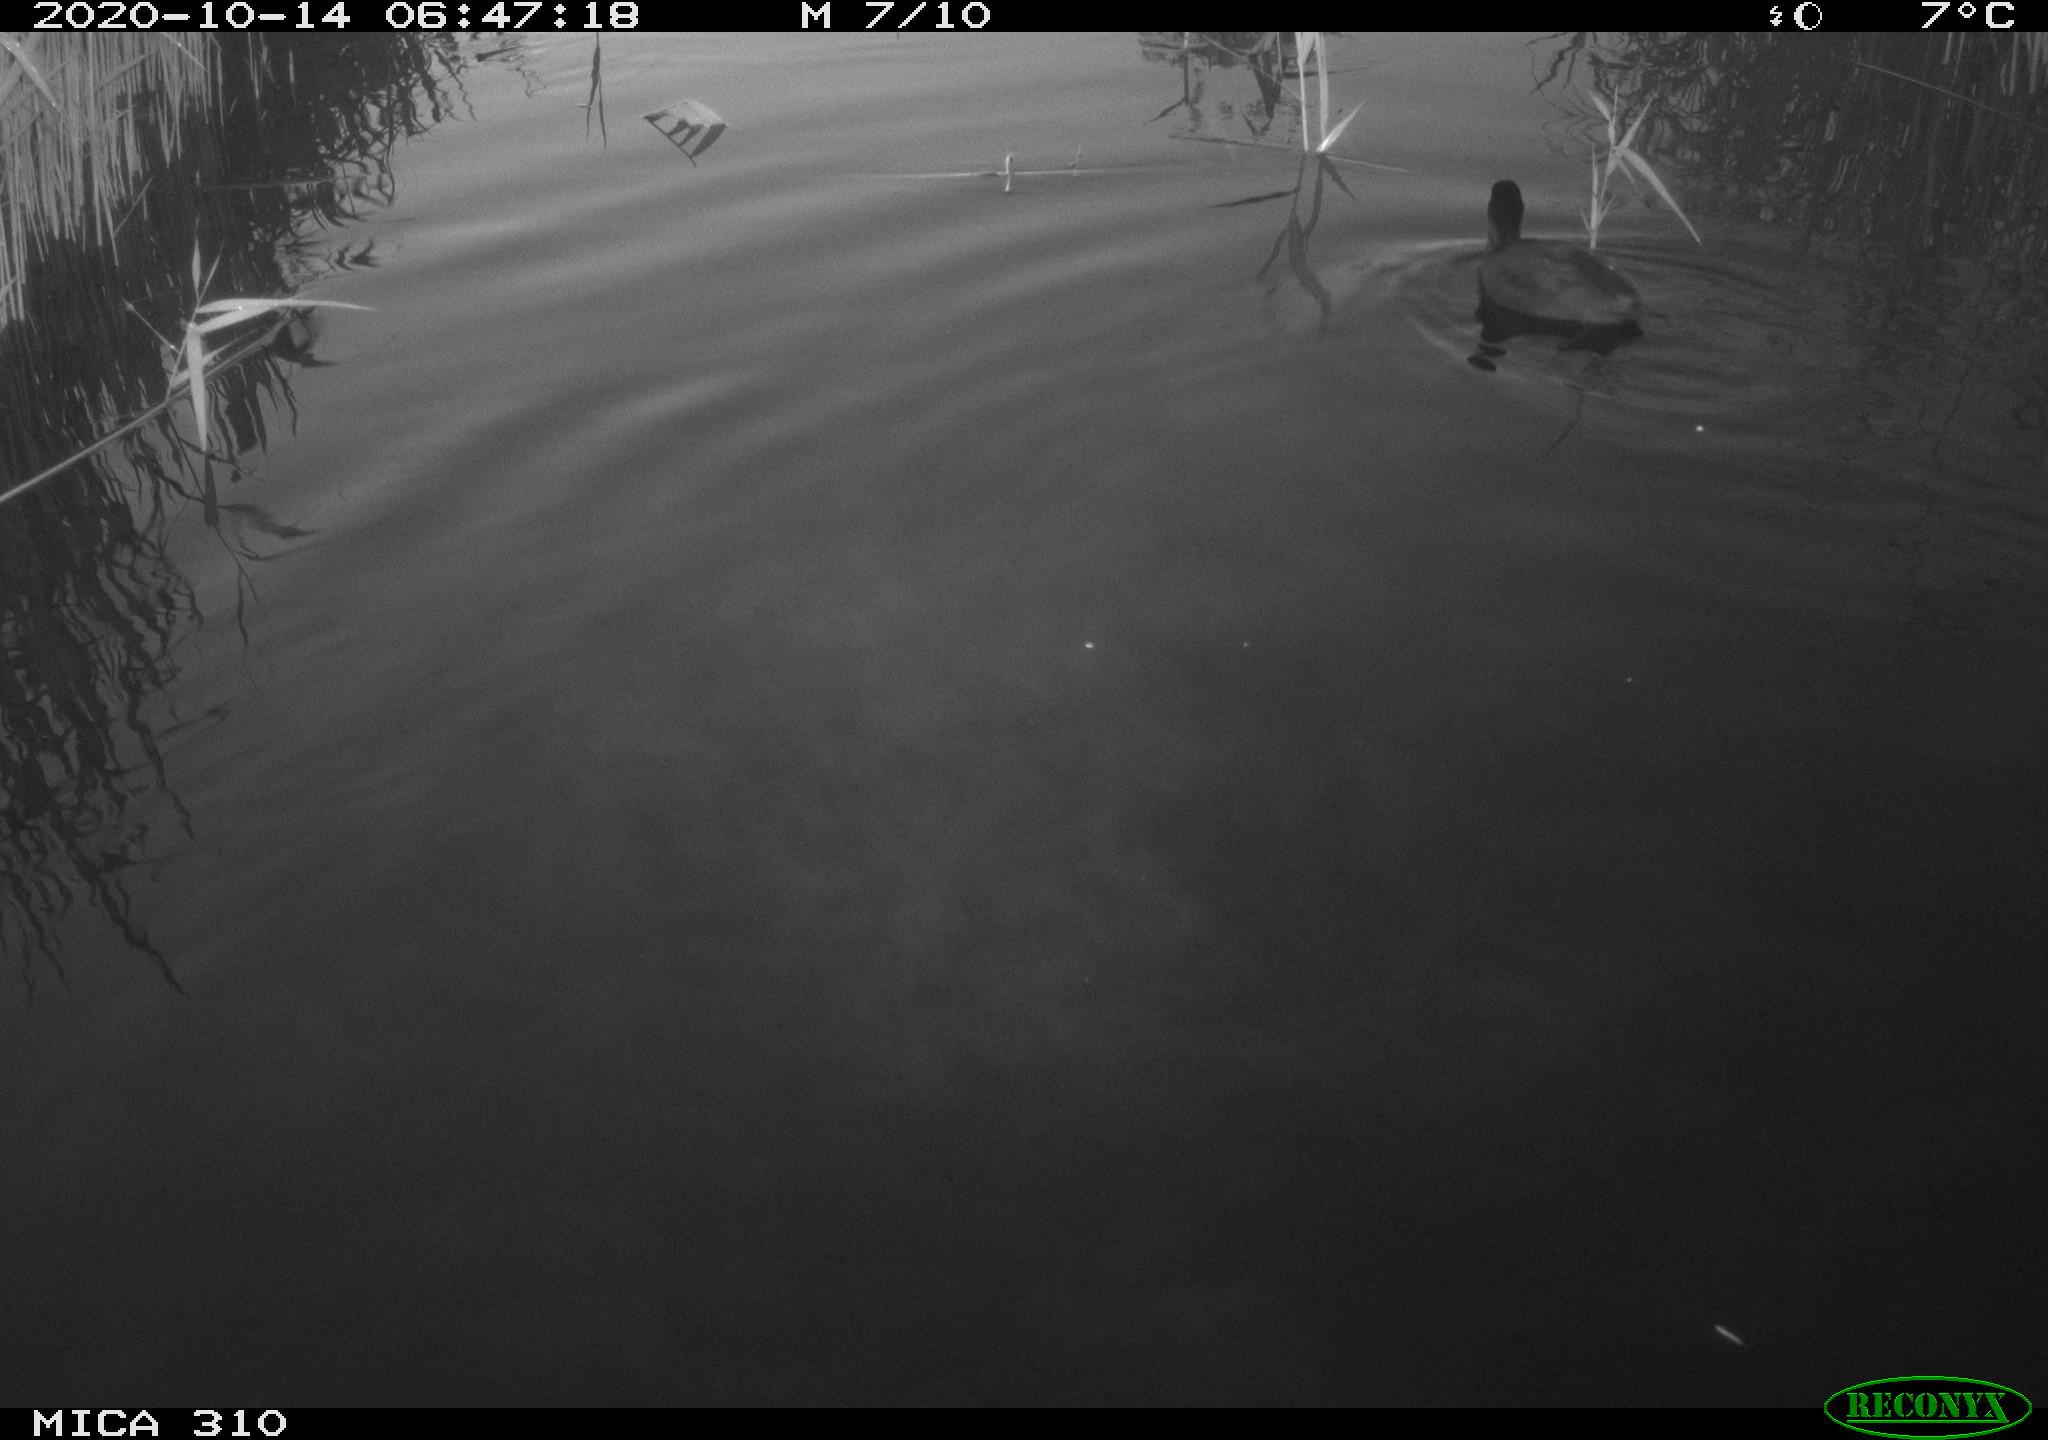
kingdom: Animalia
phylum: Chordata
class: Aves
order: Gruiformes
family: Rallidae
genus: Fulica
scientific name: Fulica atra
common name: Eurasian coot
